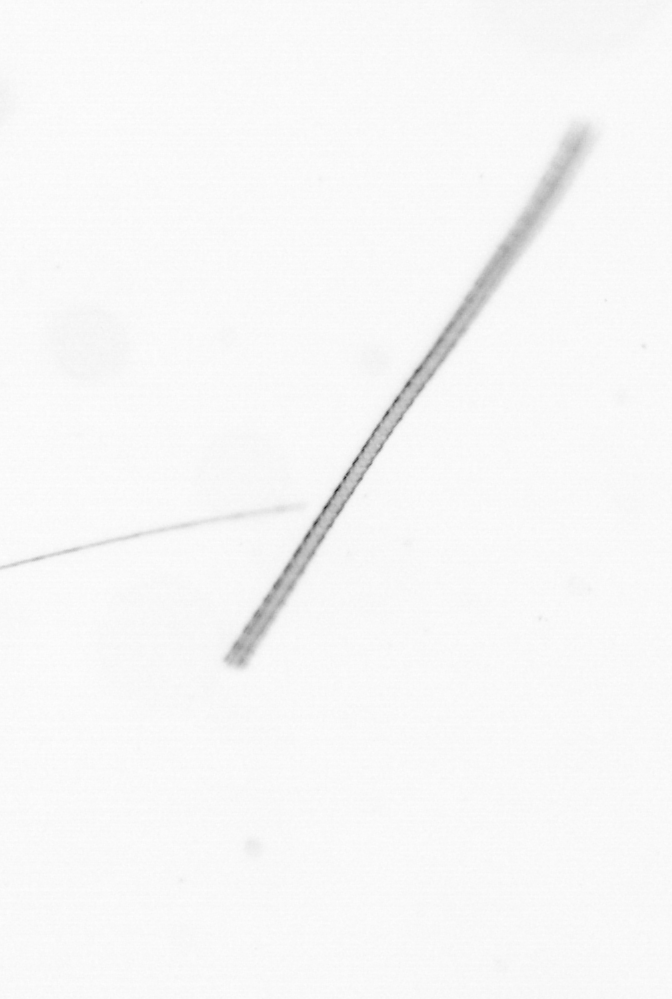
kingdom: Chromista
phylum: Ochrophyta
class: Bacillariophyceae
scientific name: Bacillariophyceae
